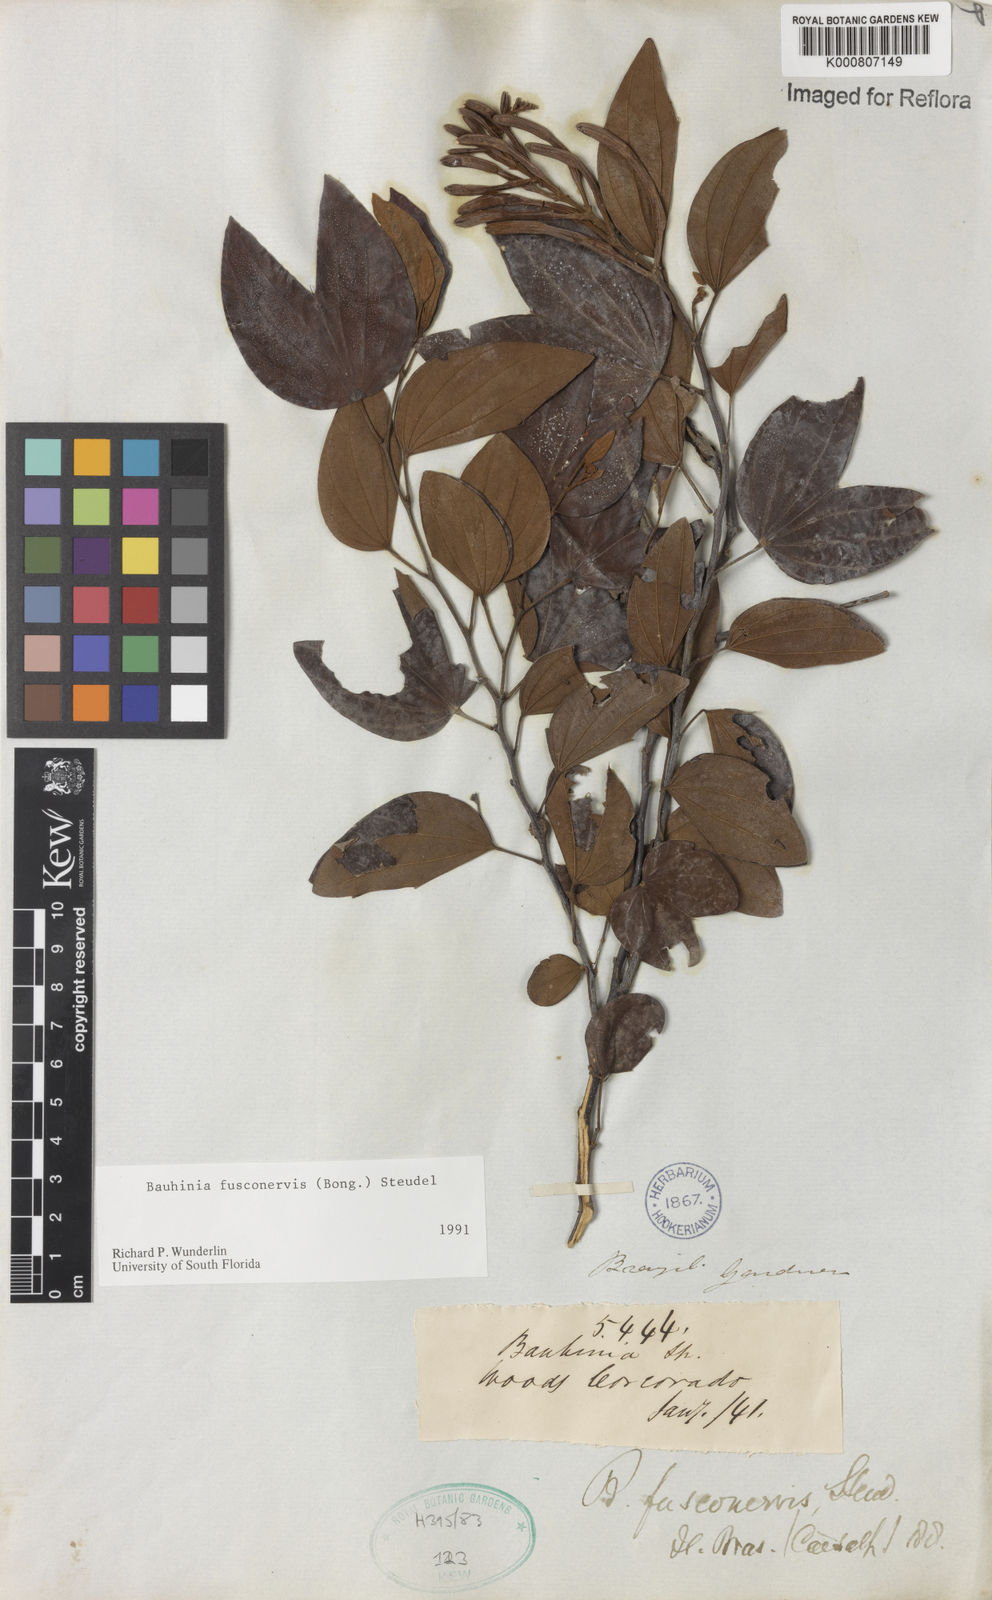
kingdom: Plantae
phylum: Tracheophyta
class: Magnoliopsida
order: Fabales
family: Fabaceae
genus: Bauhinia
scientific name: Bauhinia
